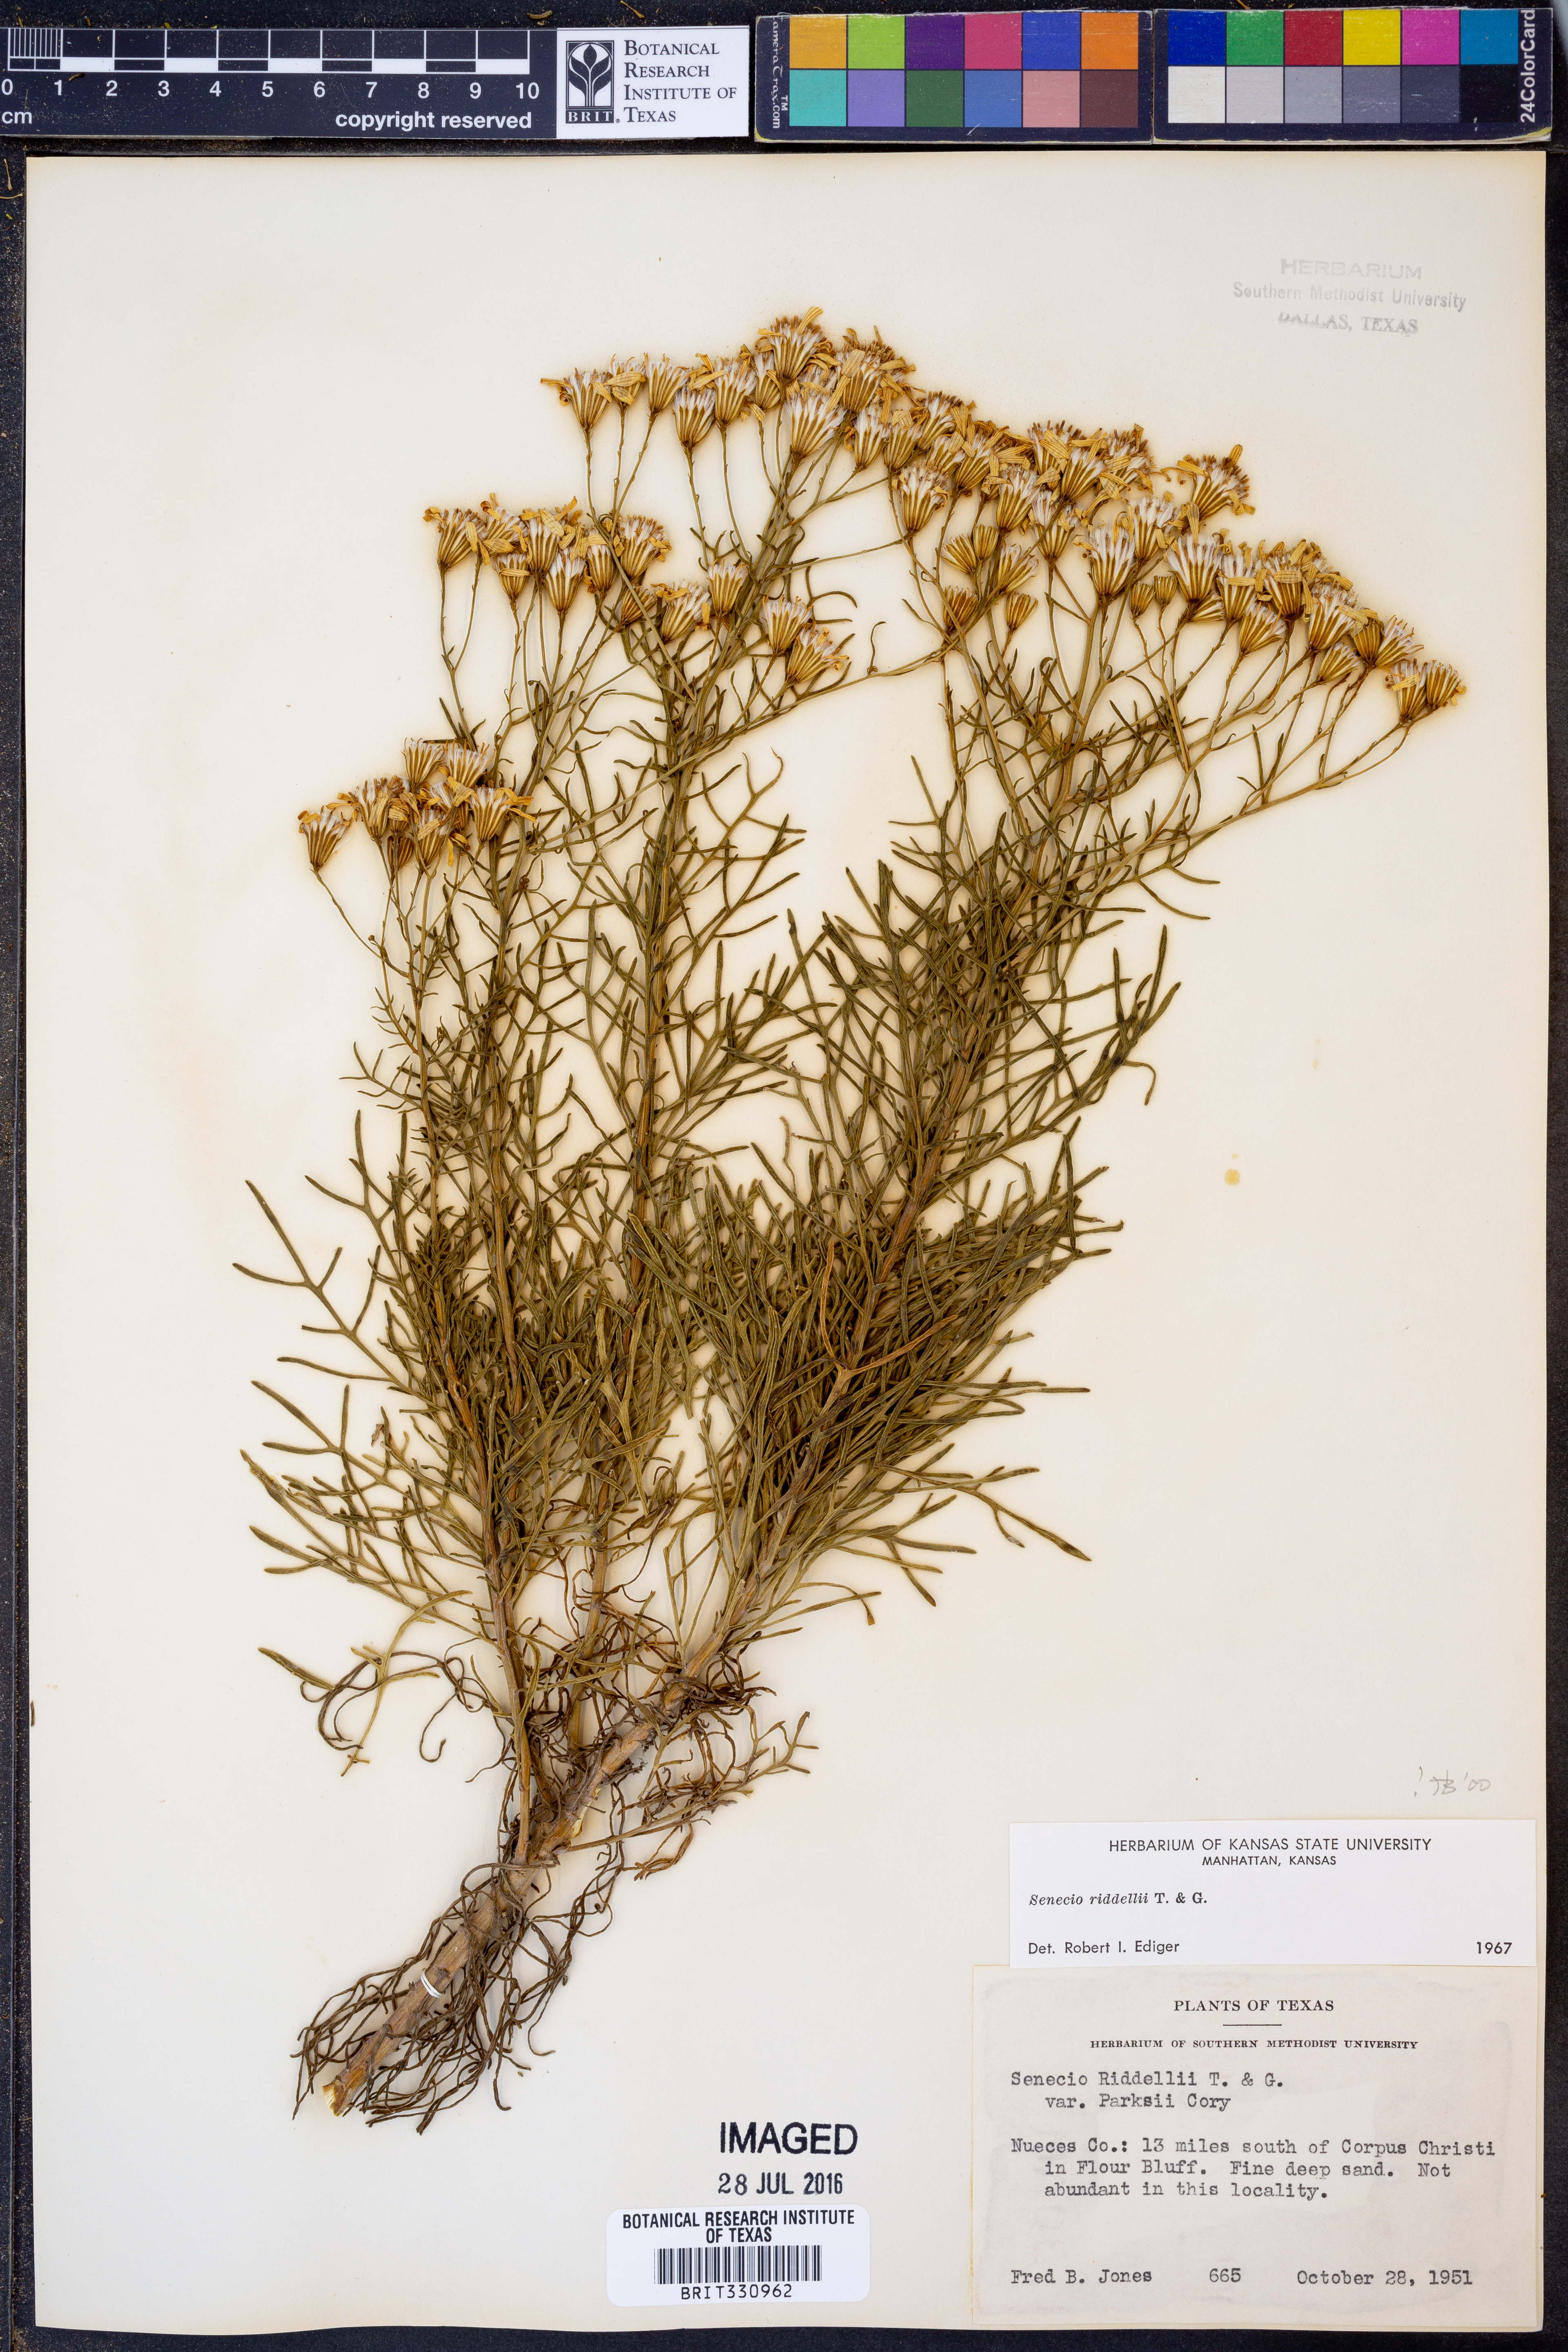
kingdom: Plantae
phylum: Tracheophyta
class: Magnoliopsida
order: Asterales
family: Asteraceae
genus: Senecio
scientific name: Senecio riddellii
